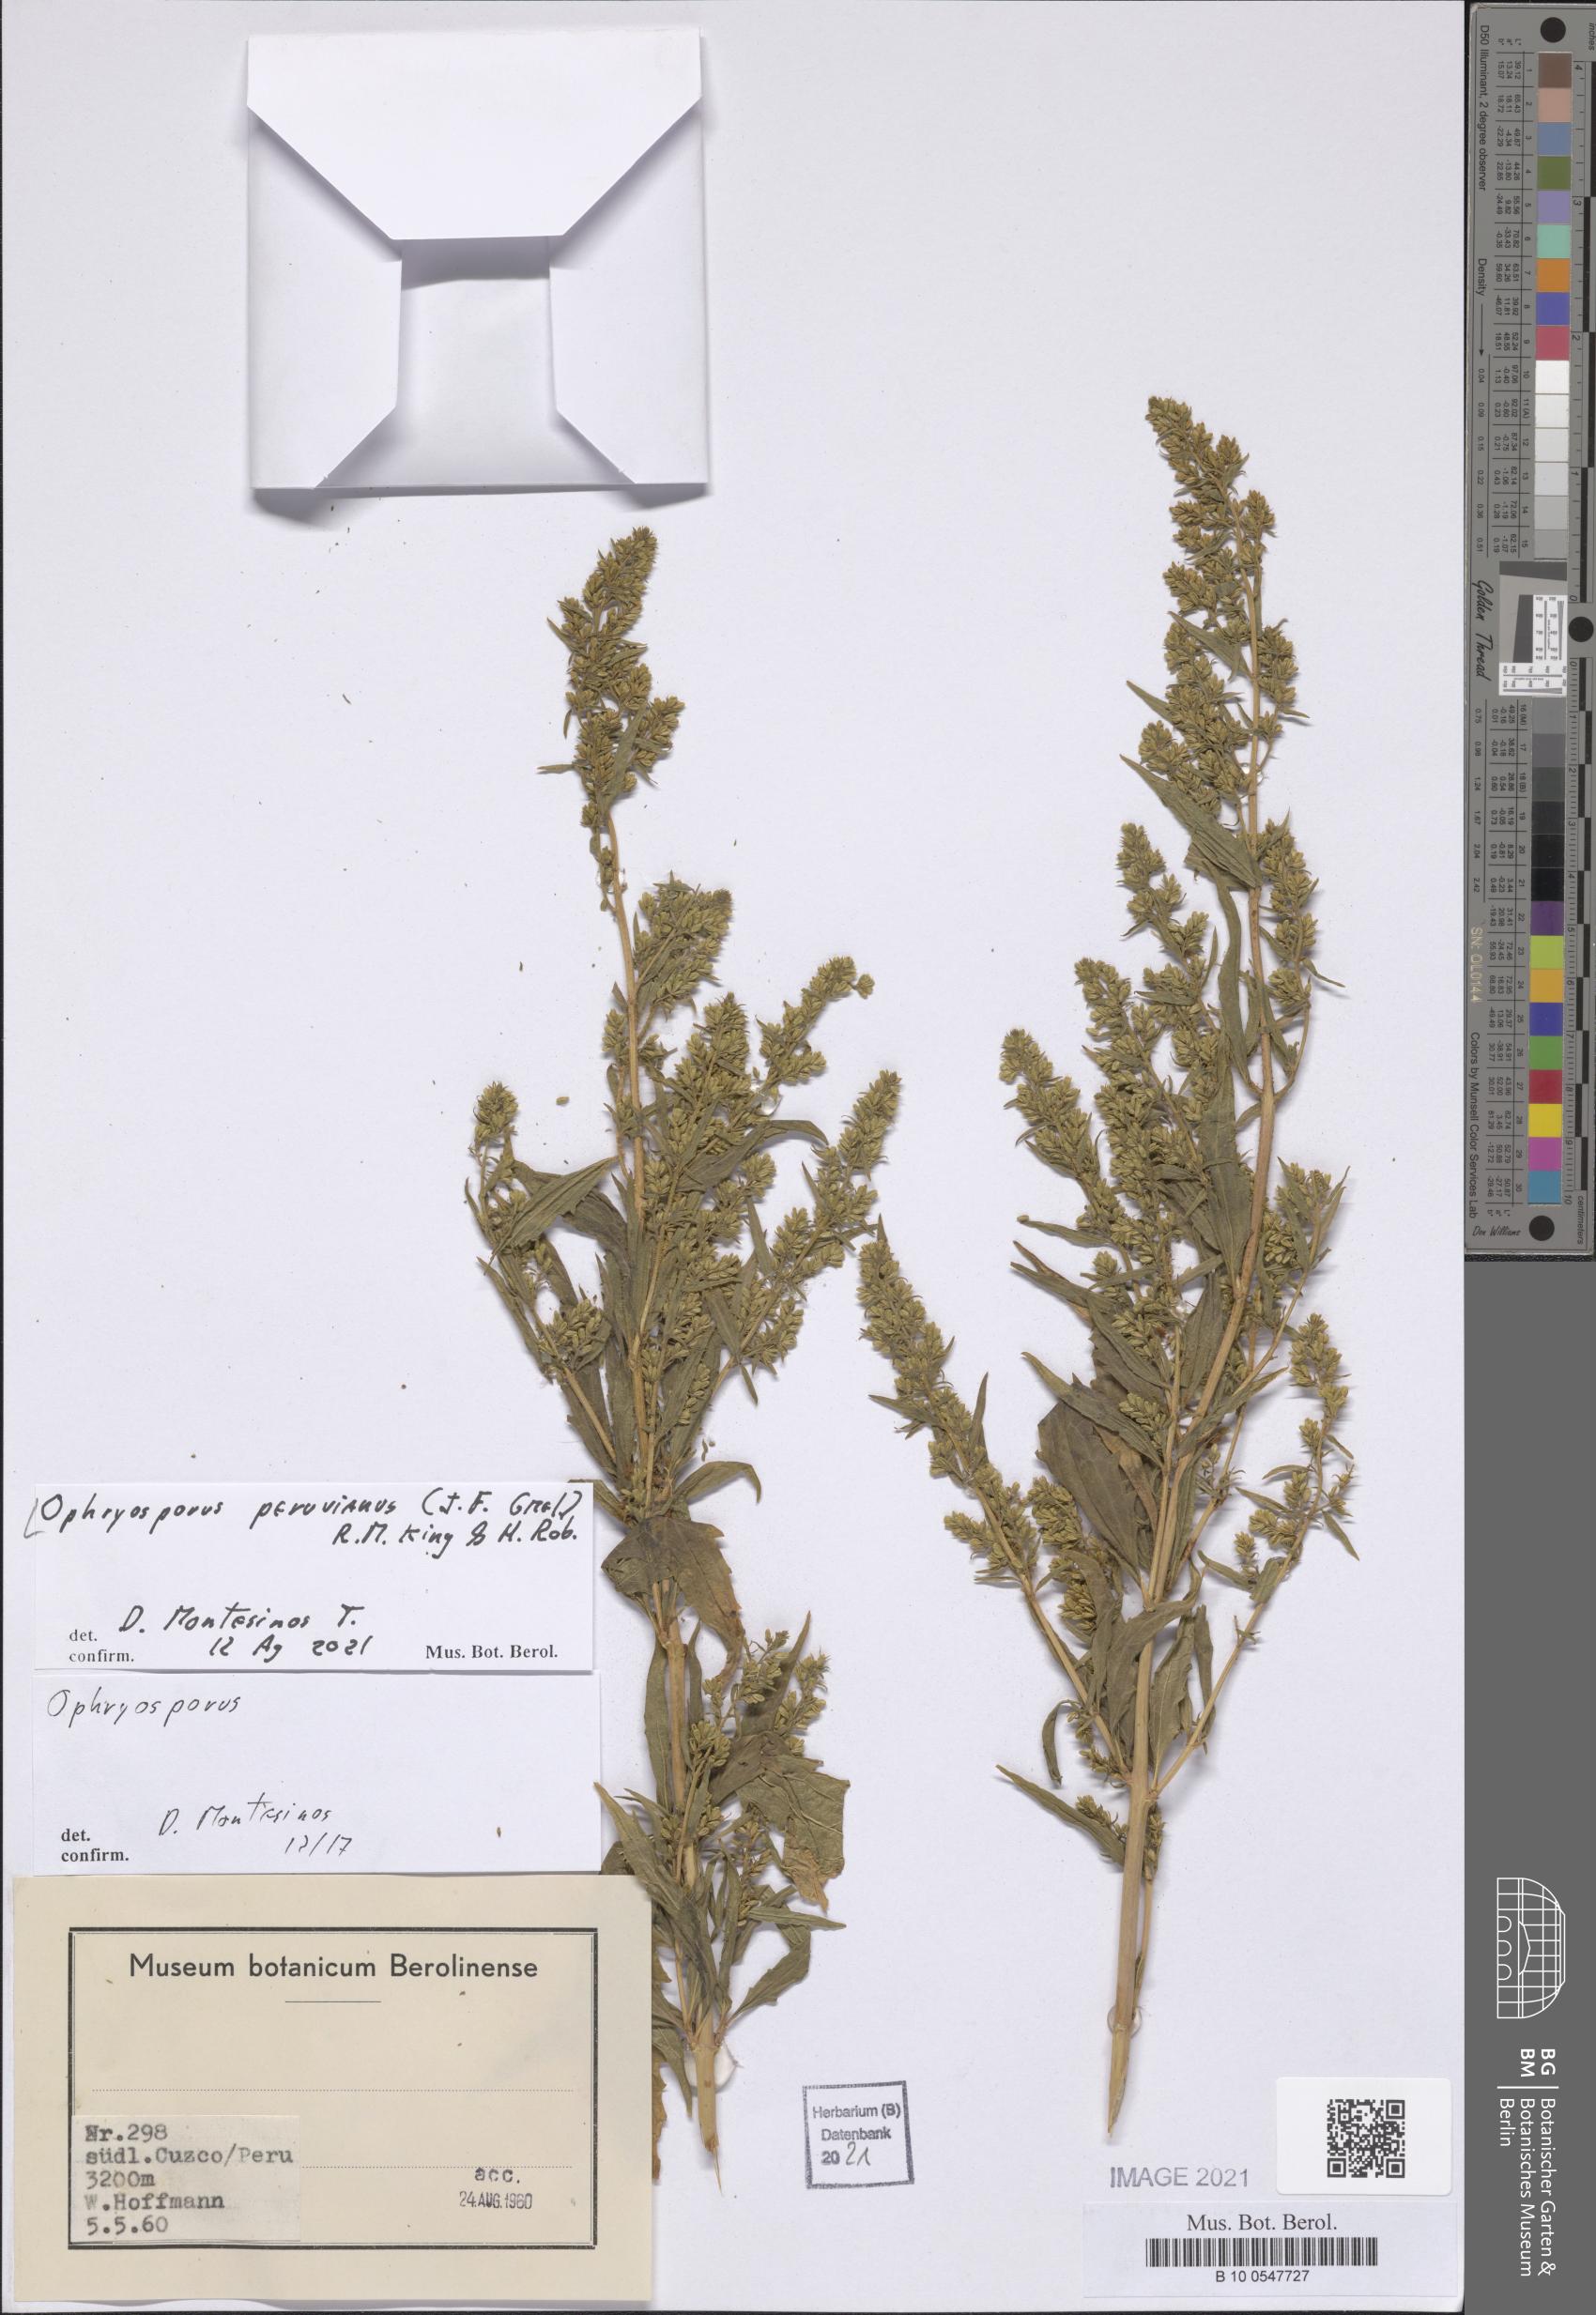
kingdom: Plantae
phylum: Tracheophyta
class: Magnoliopsida
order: Asterales
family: Asteraceae
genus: Ophryosporus
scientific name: Ophryosporus peruvianus
